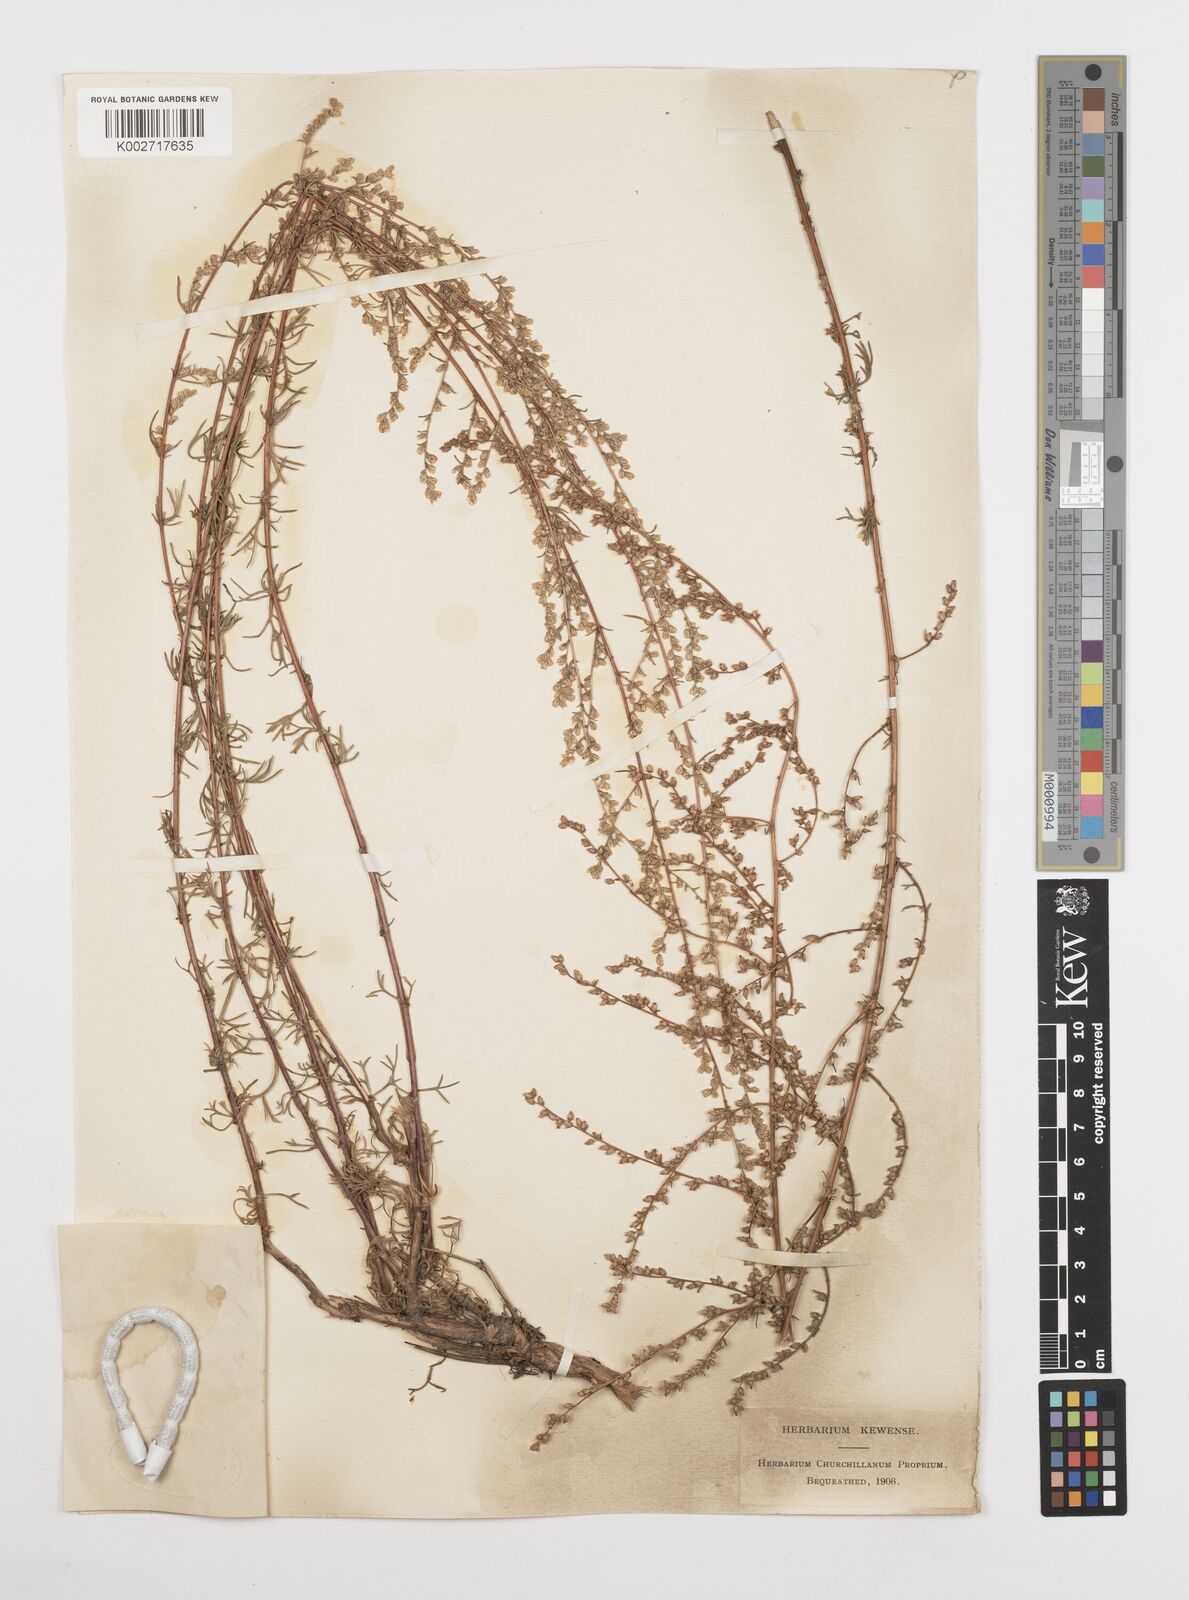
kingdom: Plantae
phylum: Tracheophyta
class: Magnoliopsida
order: Asterales
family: Asteraceae
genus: Artemisia
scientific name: Artemisia campestris
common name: Field wormwood
